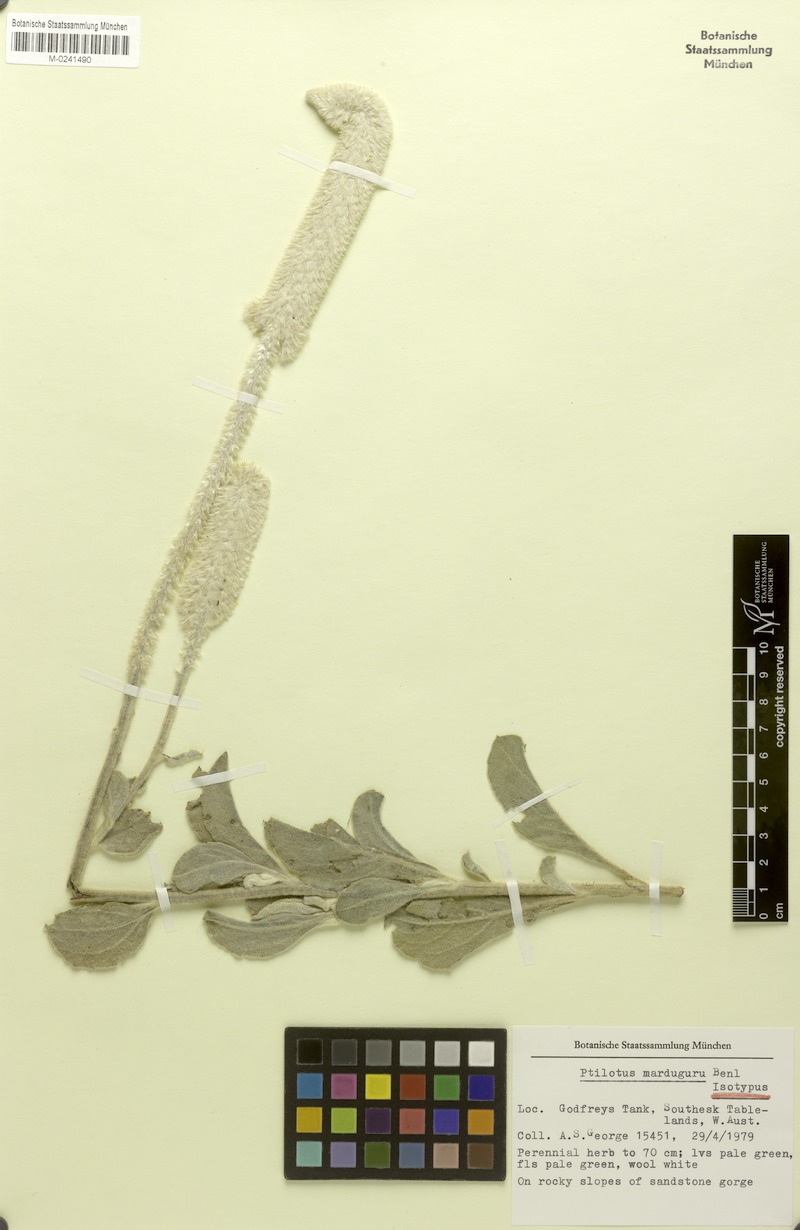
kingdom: Plantae
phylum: Tracheophyta
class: Magnoliopsida
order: Caryophyllales
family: Amaranthaceae
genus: Ptilotus
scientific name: Ptilotus marduguru
